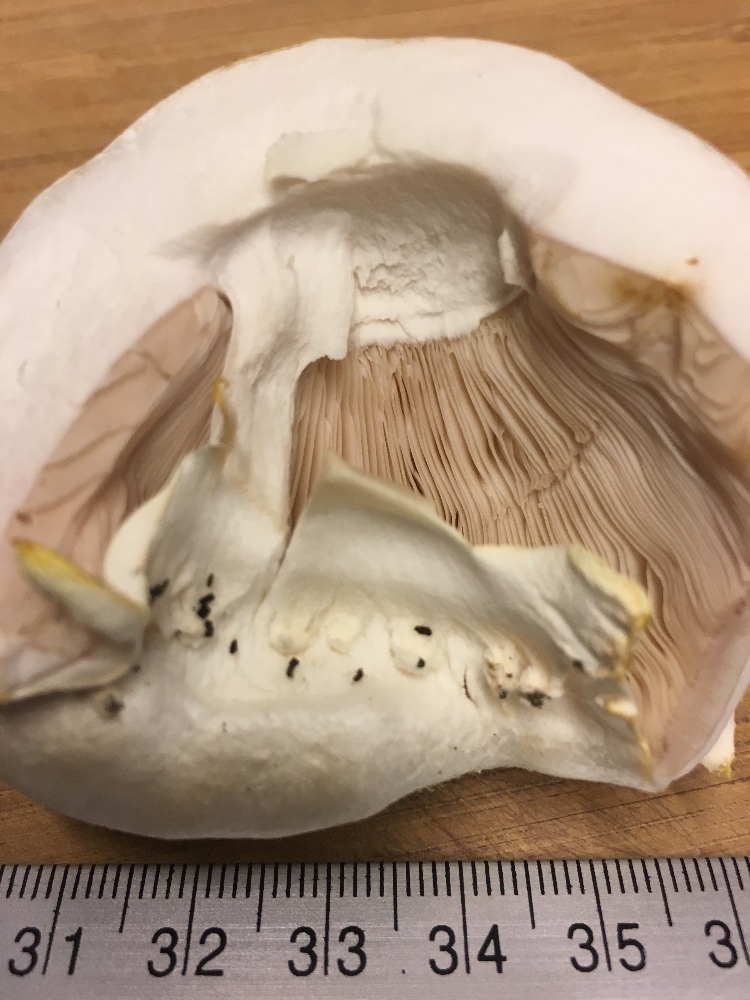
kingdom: Fungi
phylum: Basidiomycota
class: Agaricomycetes
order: Agaricales
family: Agaricaceae
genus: Agaricus
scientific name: Agaricus arvensis
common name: ager-champignon
